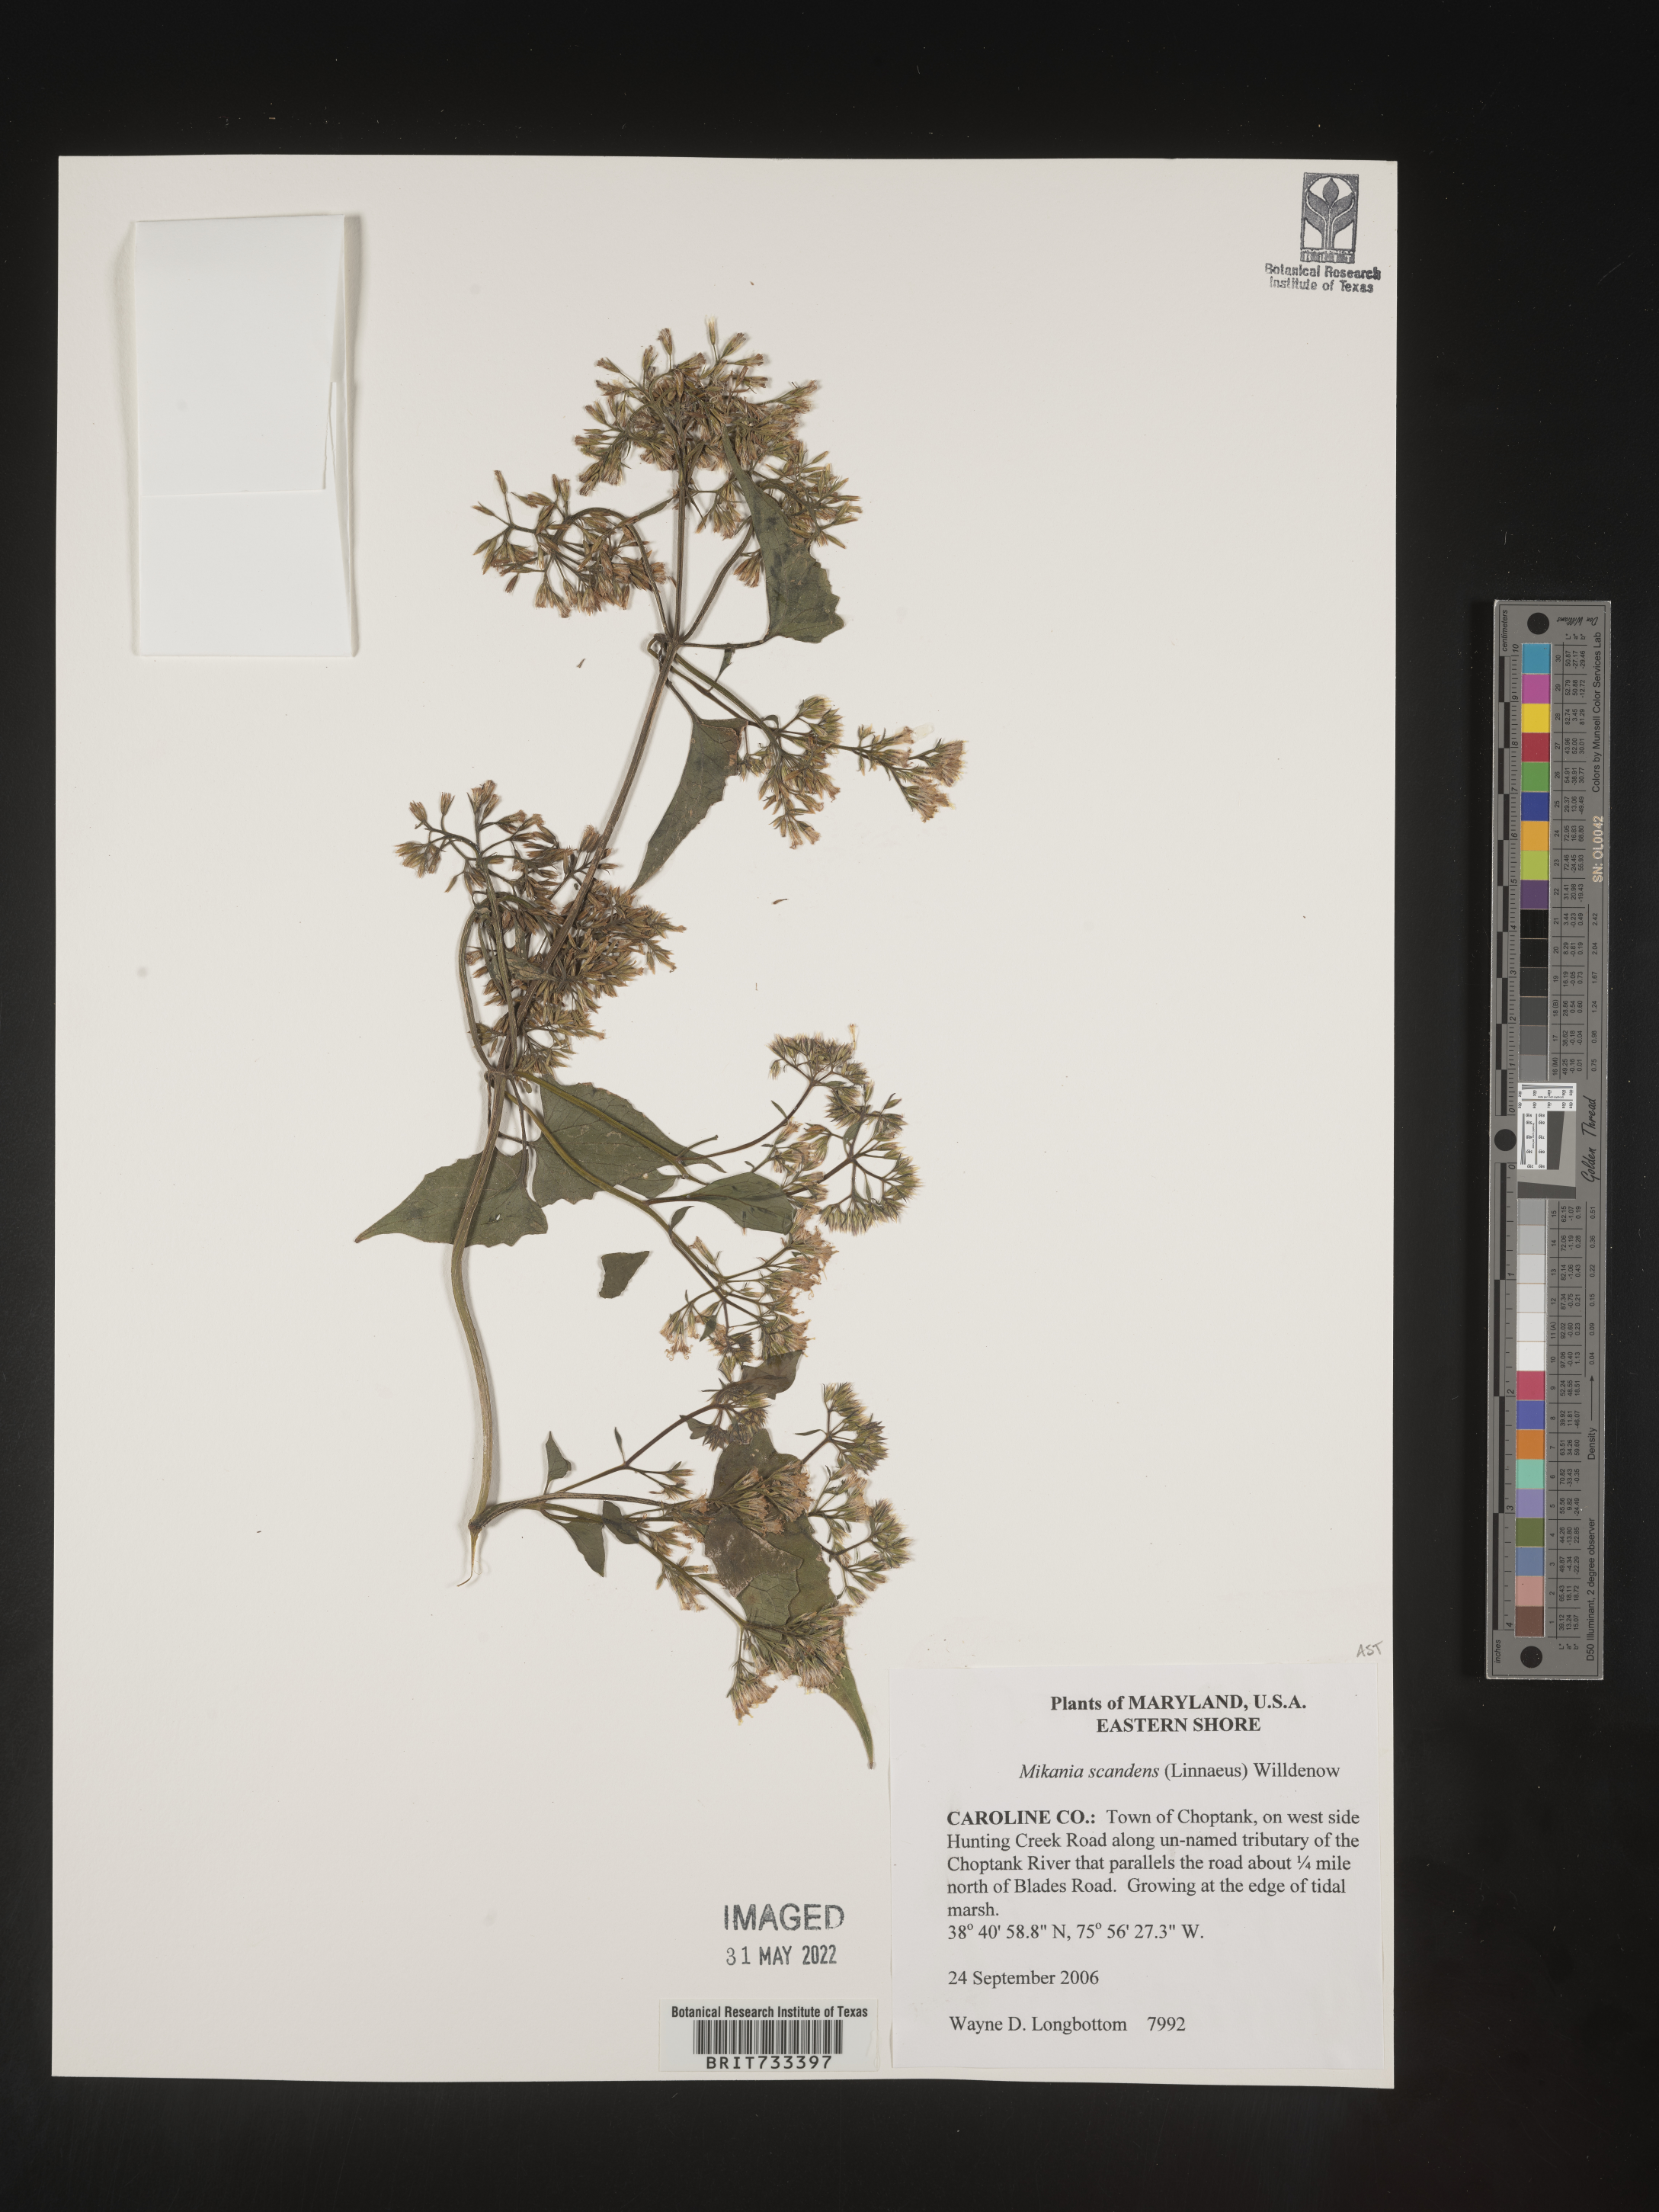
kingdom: Plantae
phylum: Tracheophyta
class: Magnoliopsida
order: Asterales
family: Asteraceae
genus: Mikania
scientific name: Mikania scandens
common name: Climbing hempvine
